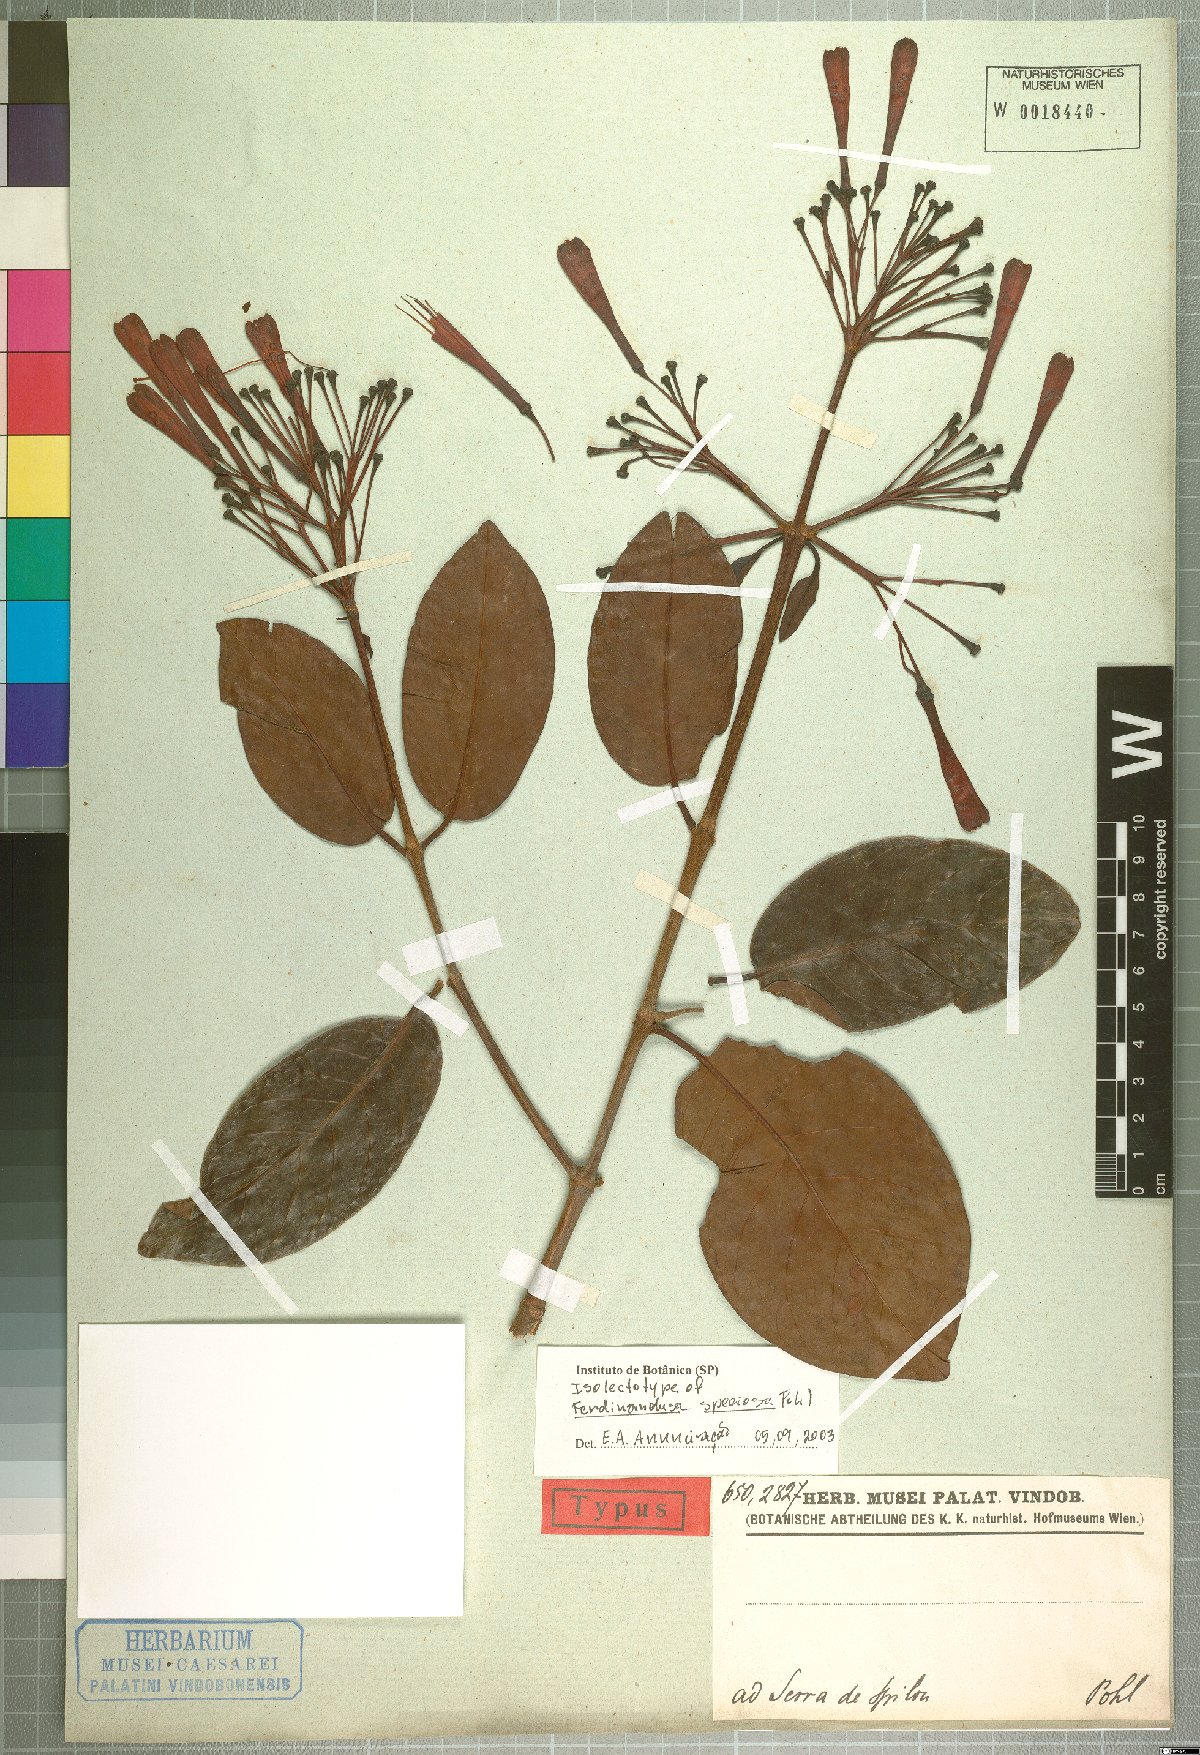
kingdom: Plantae
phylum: Tracheophyta
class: Magnoliopsida
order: Gentianales
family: Rubiaceae
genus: Ferdinandusa
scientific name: Ferdinandusa speciosa
